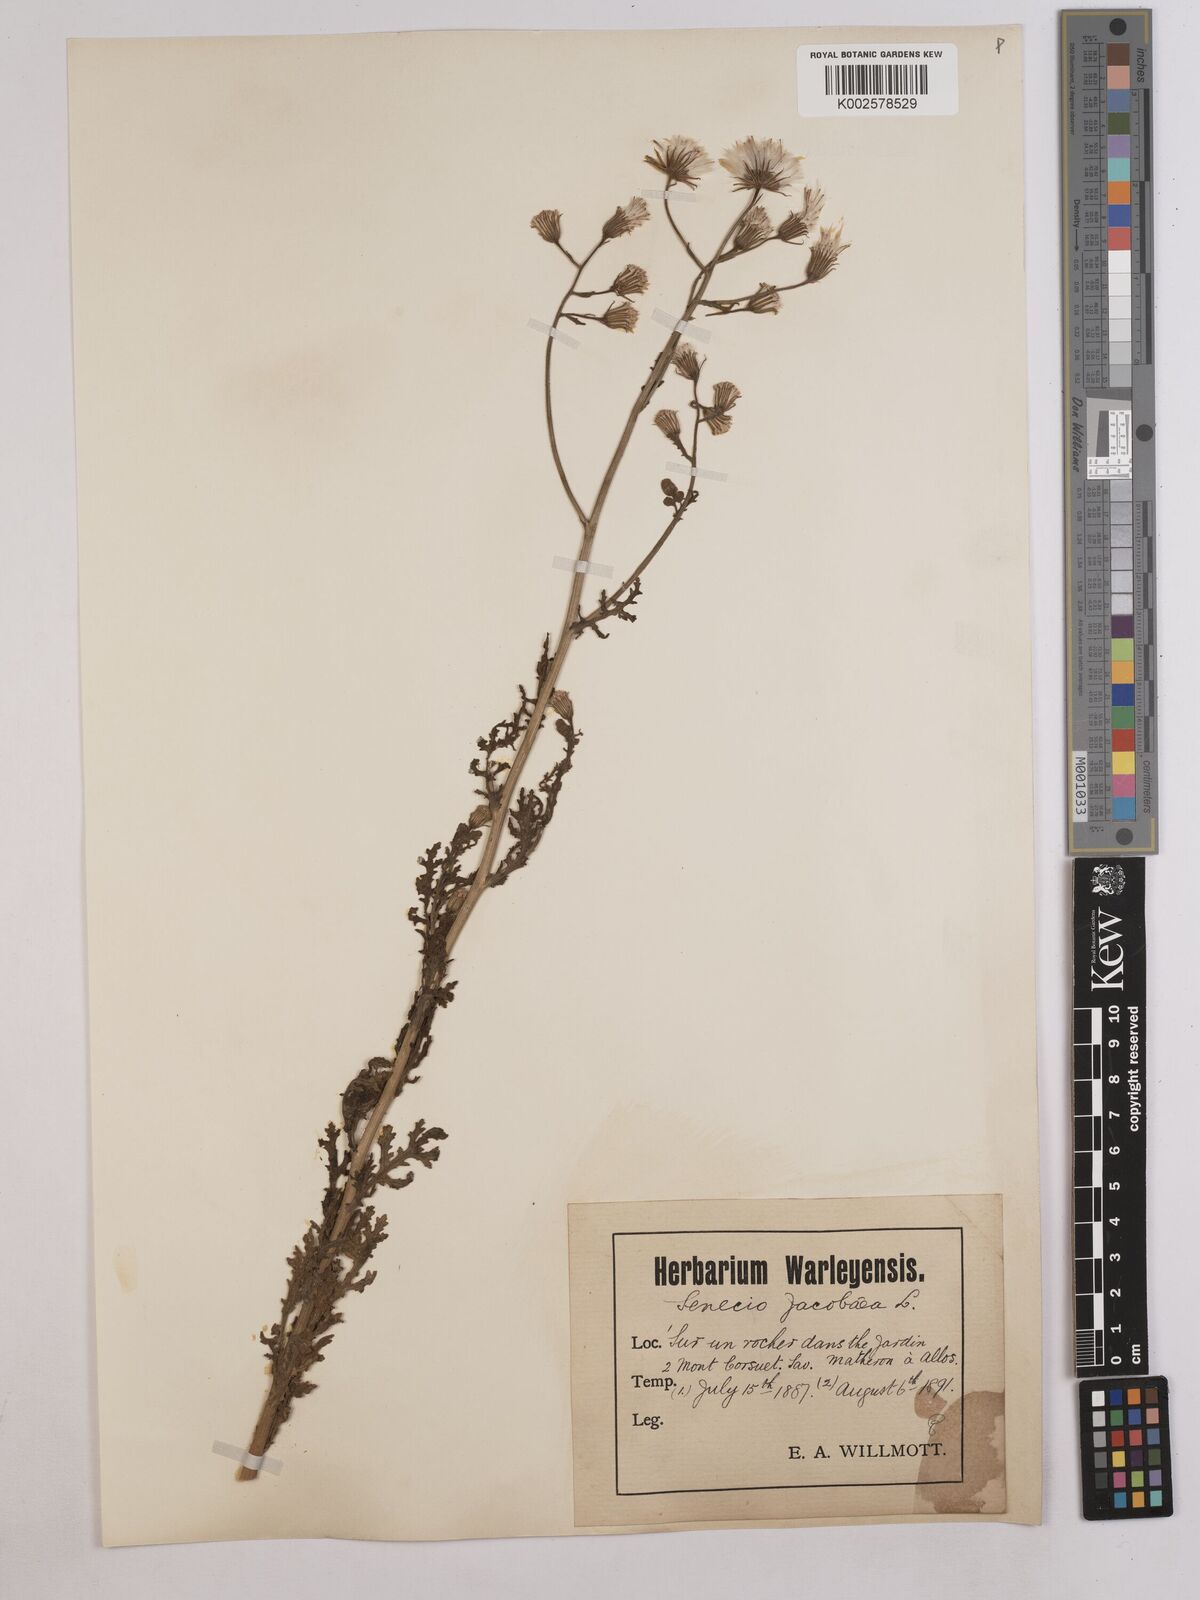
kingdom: Plantae
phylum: Tracheophyta
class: Magnoliopsida
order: Asterales
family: Asteraceae
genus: Jacobaea
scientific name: Jacobaea vulgaris
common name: Stinking willie
